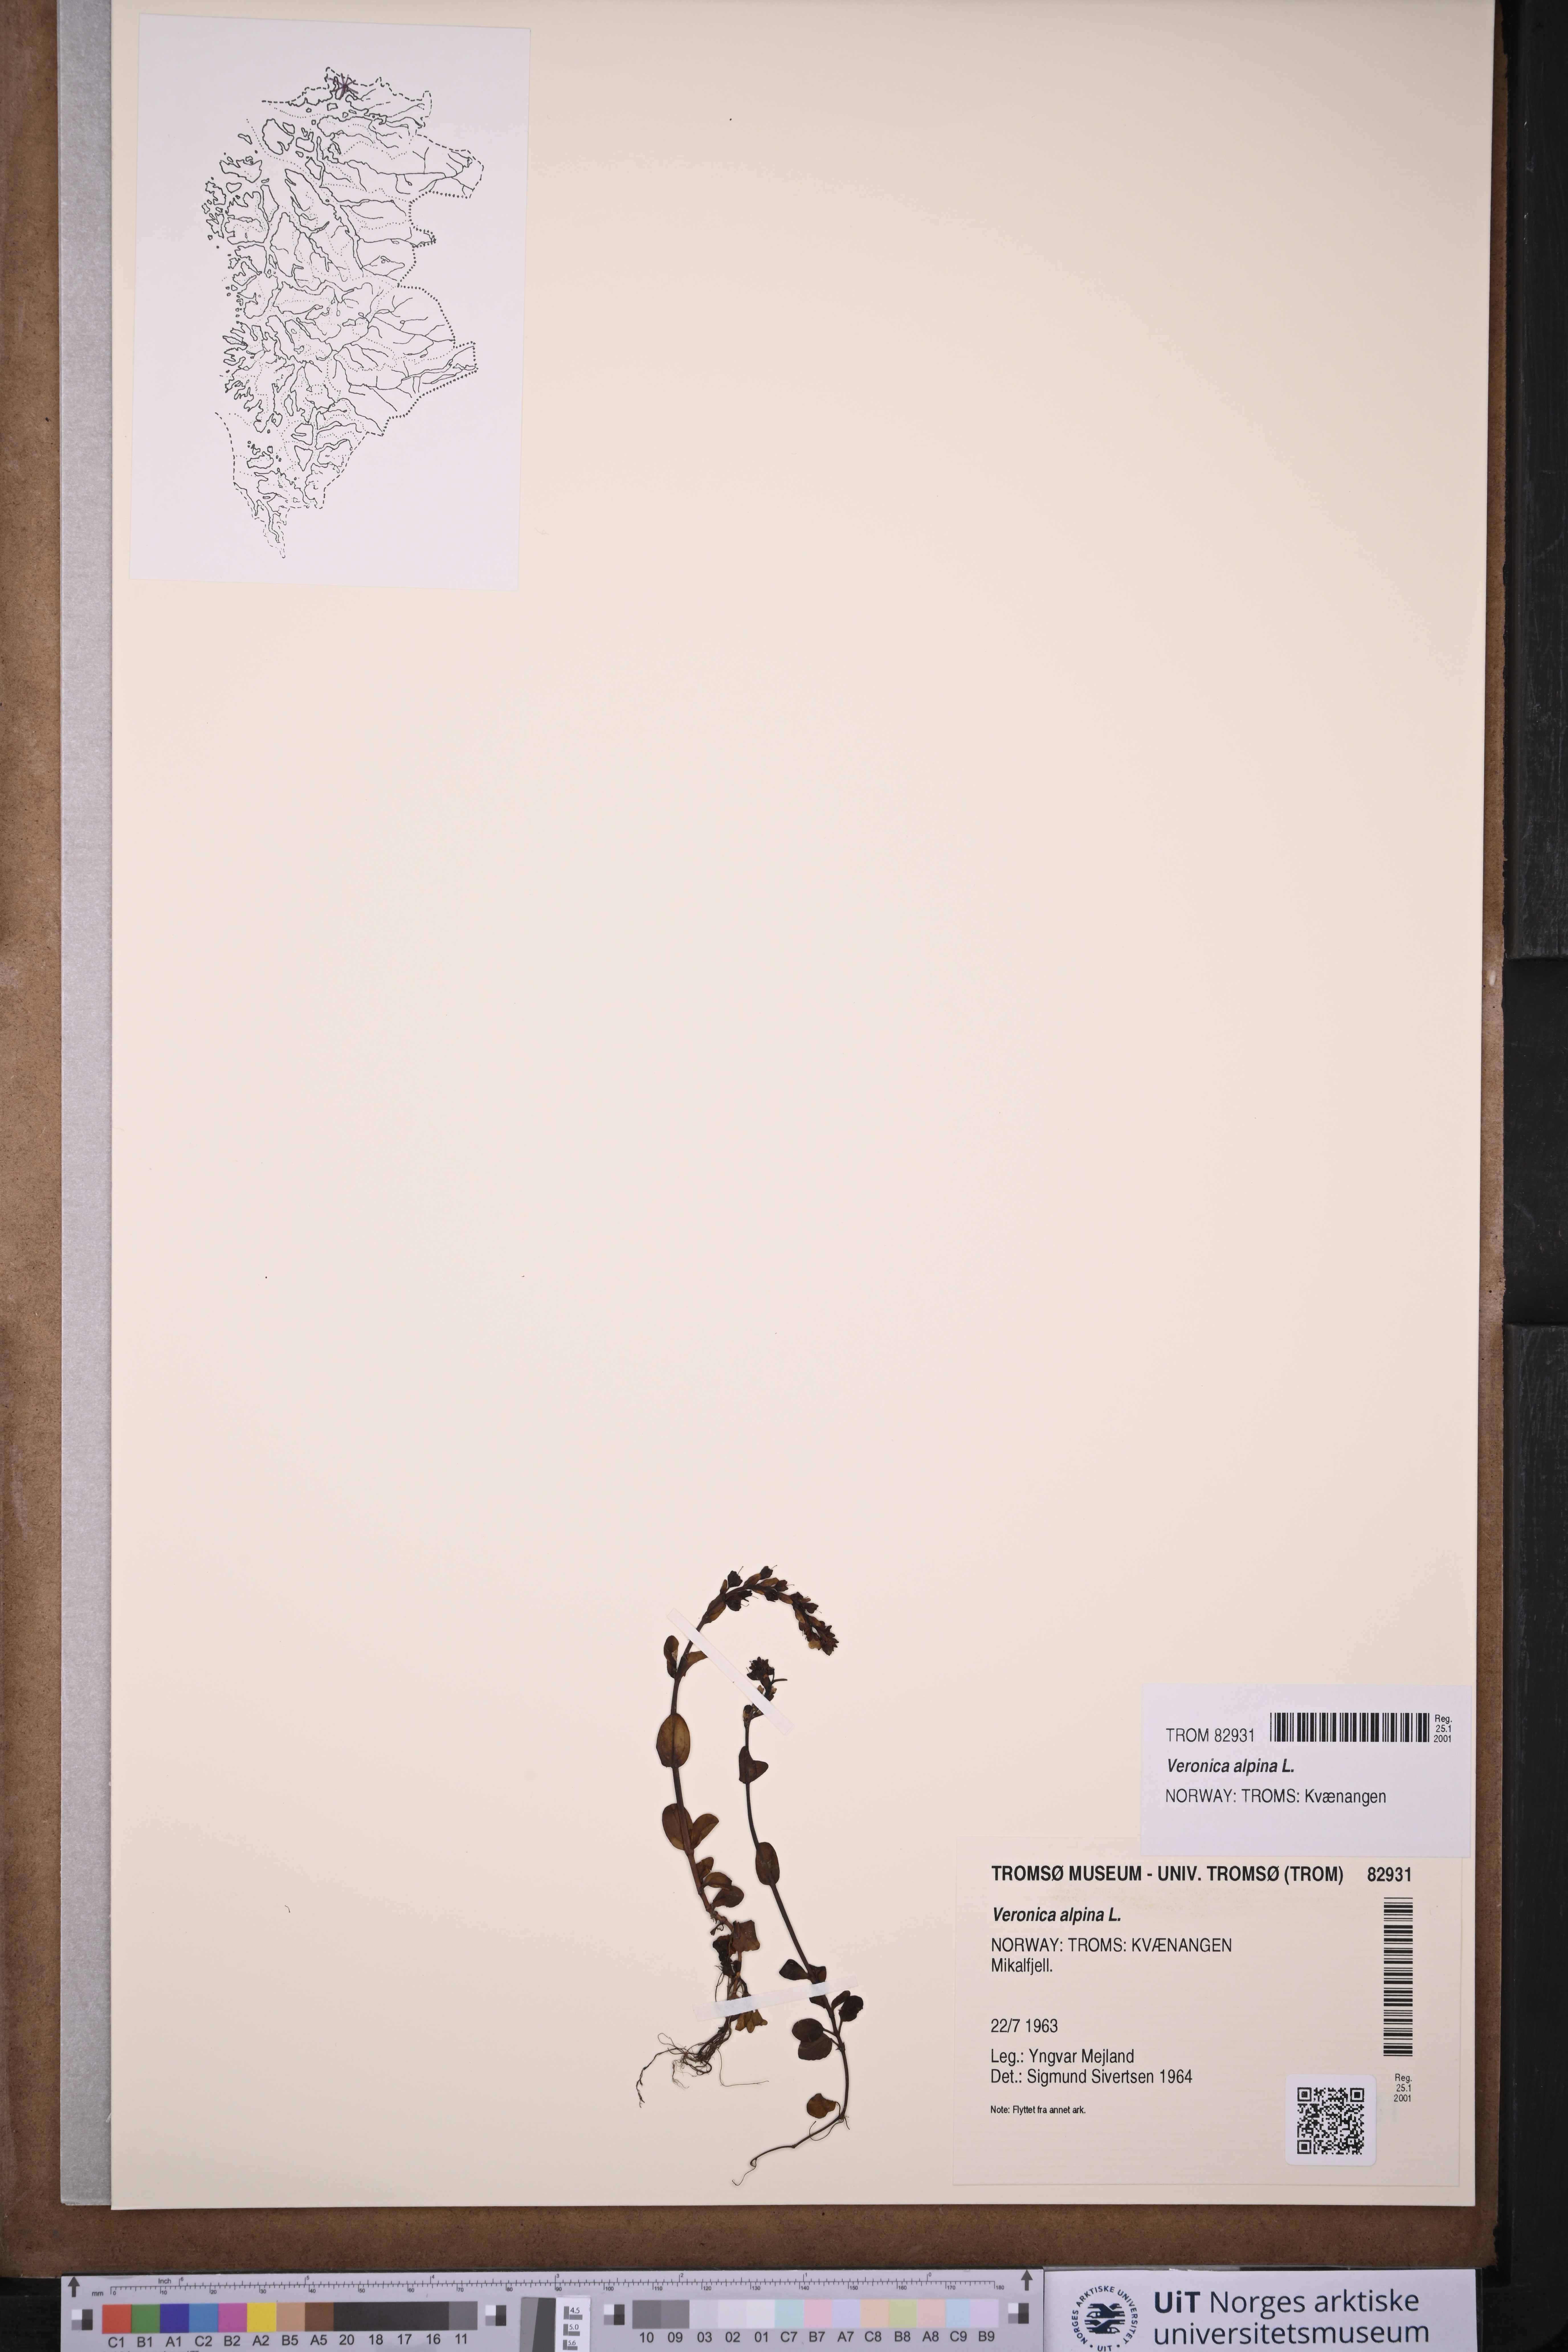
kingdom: Plantae
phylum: Tracheophyta
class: Magnoliopsida
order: Lamiales
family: Plantaginaceae
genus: Veronica
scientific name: Veronica alpina
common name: Alpine speedwell
